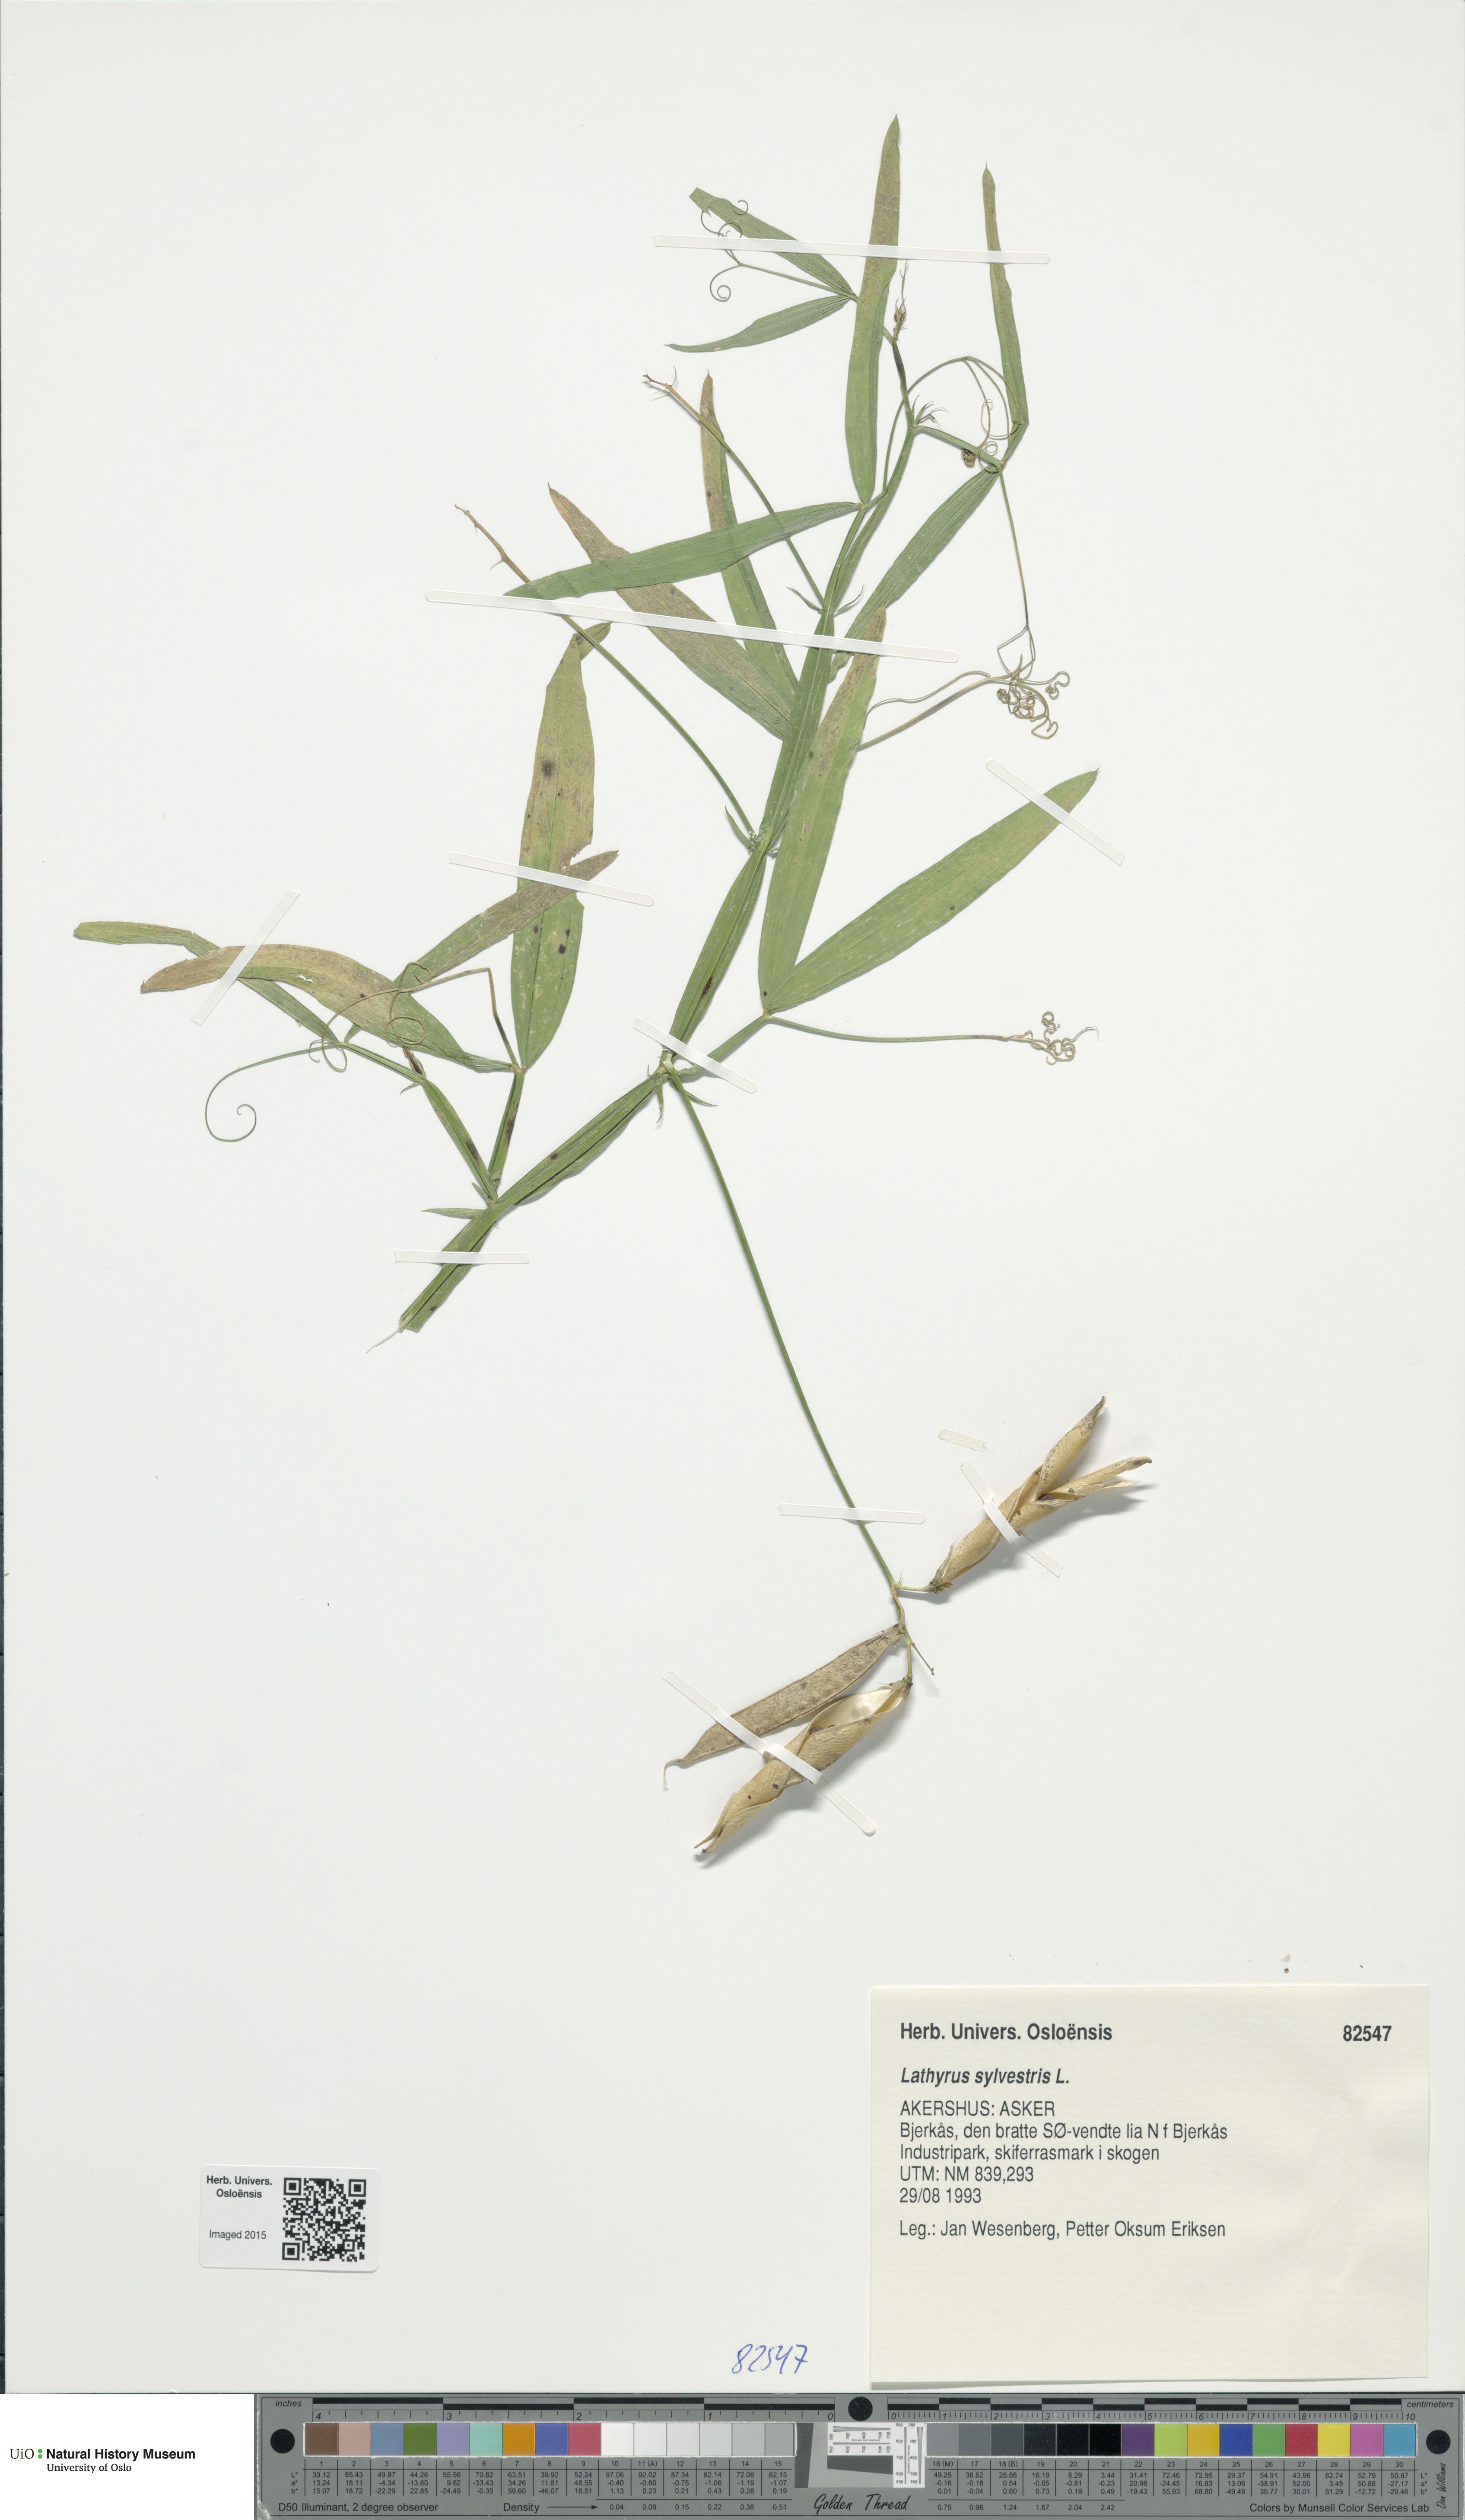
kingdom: Plantae
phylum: Tracheophyta
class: Magnoliopsida
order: Fabales
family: Fabaceae
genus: Lathyrus
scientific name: Lathyrus sylvestris
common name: Flat pea
